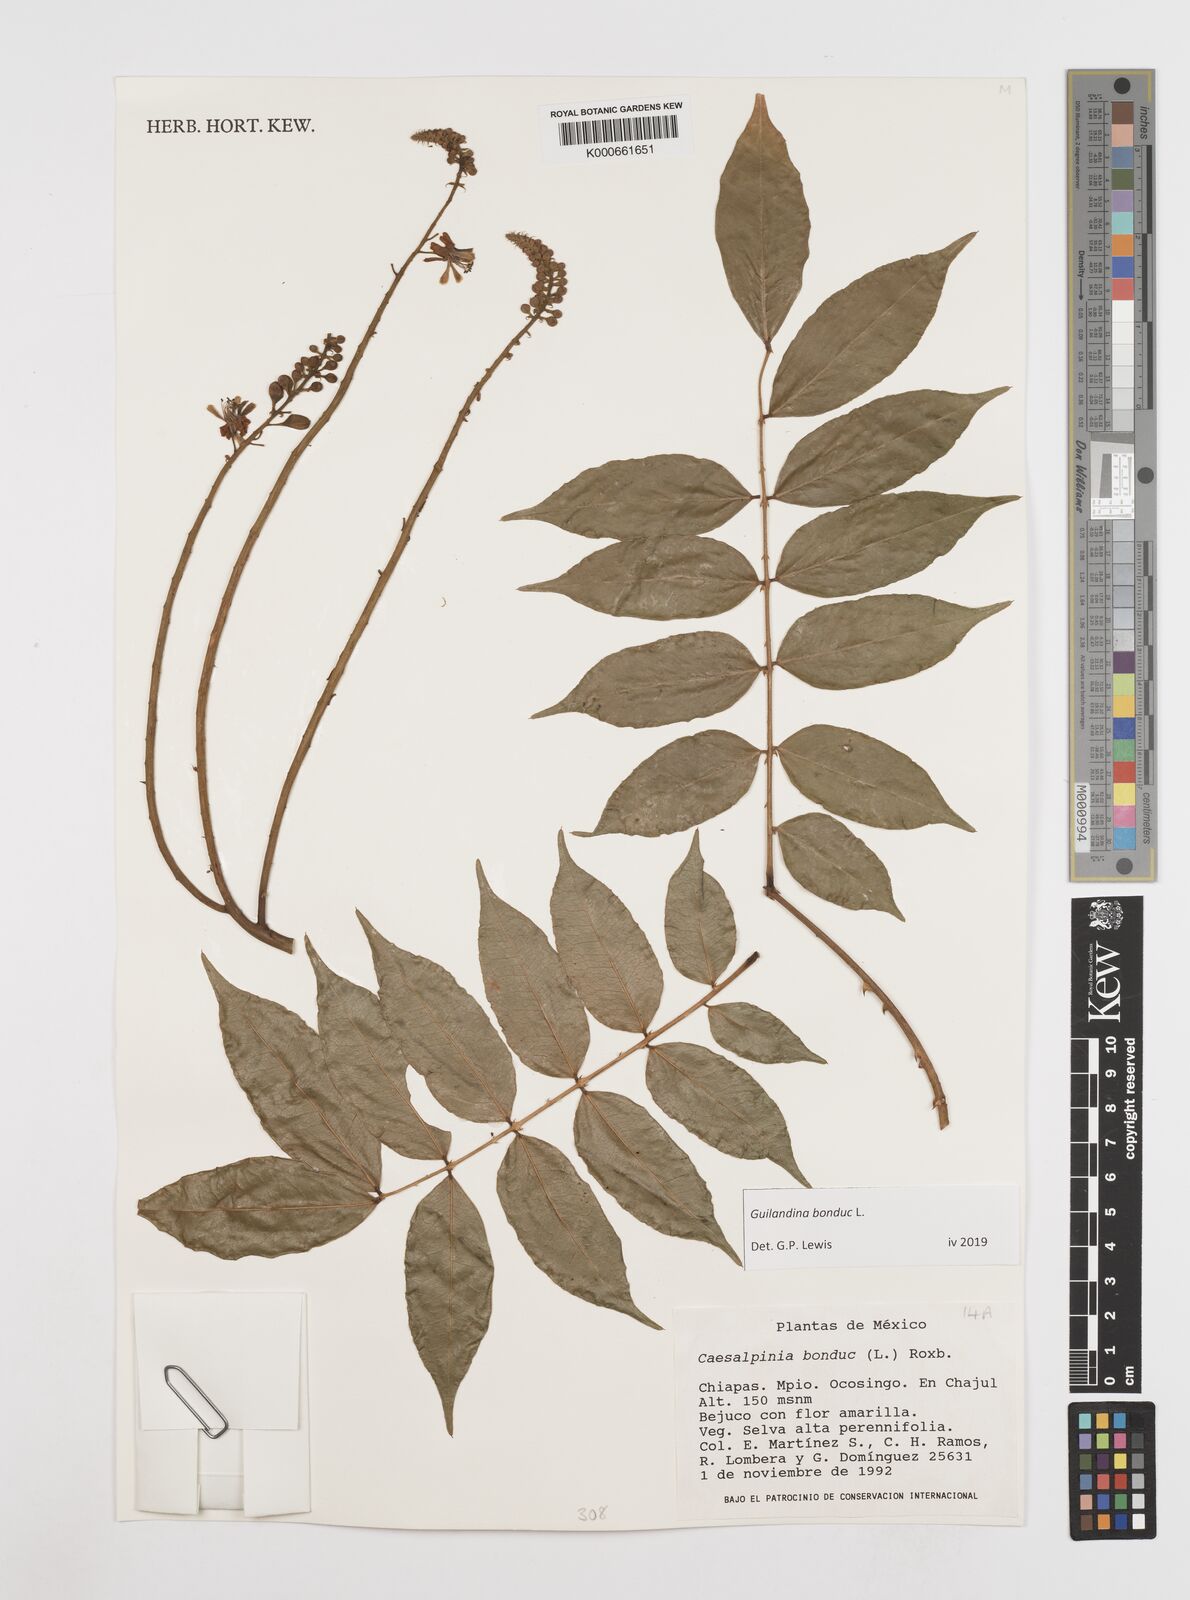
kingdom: Plantae
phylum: Tracheophyta
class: Magnoliopsida
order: Fabales
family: Fabaceae
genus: Guilandina
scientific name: Guilandina bonduc
